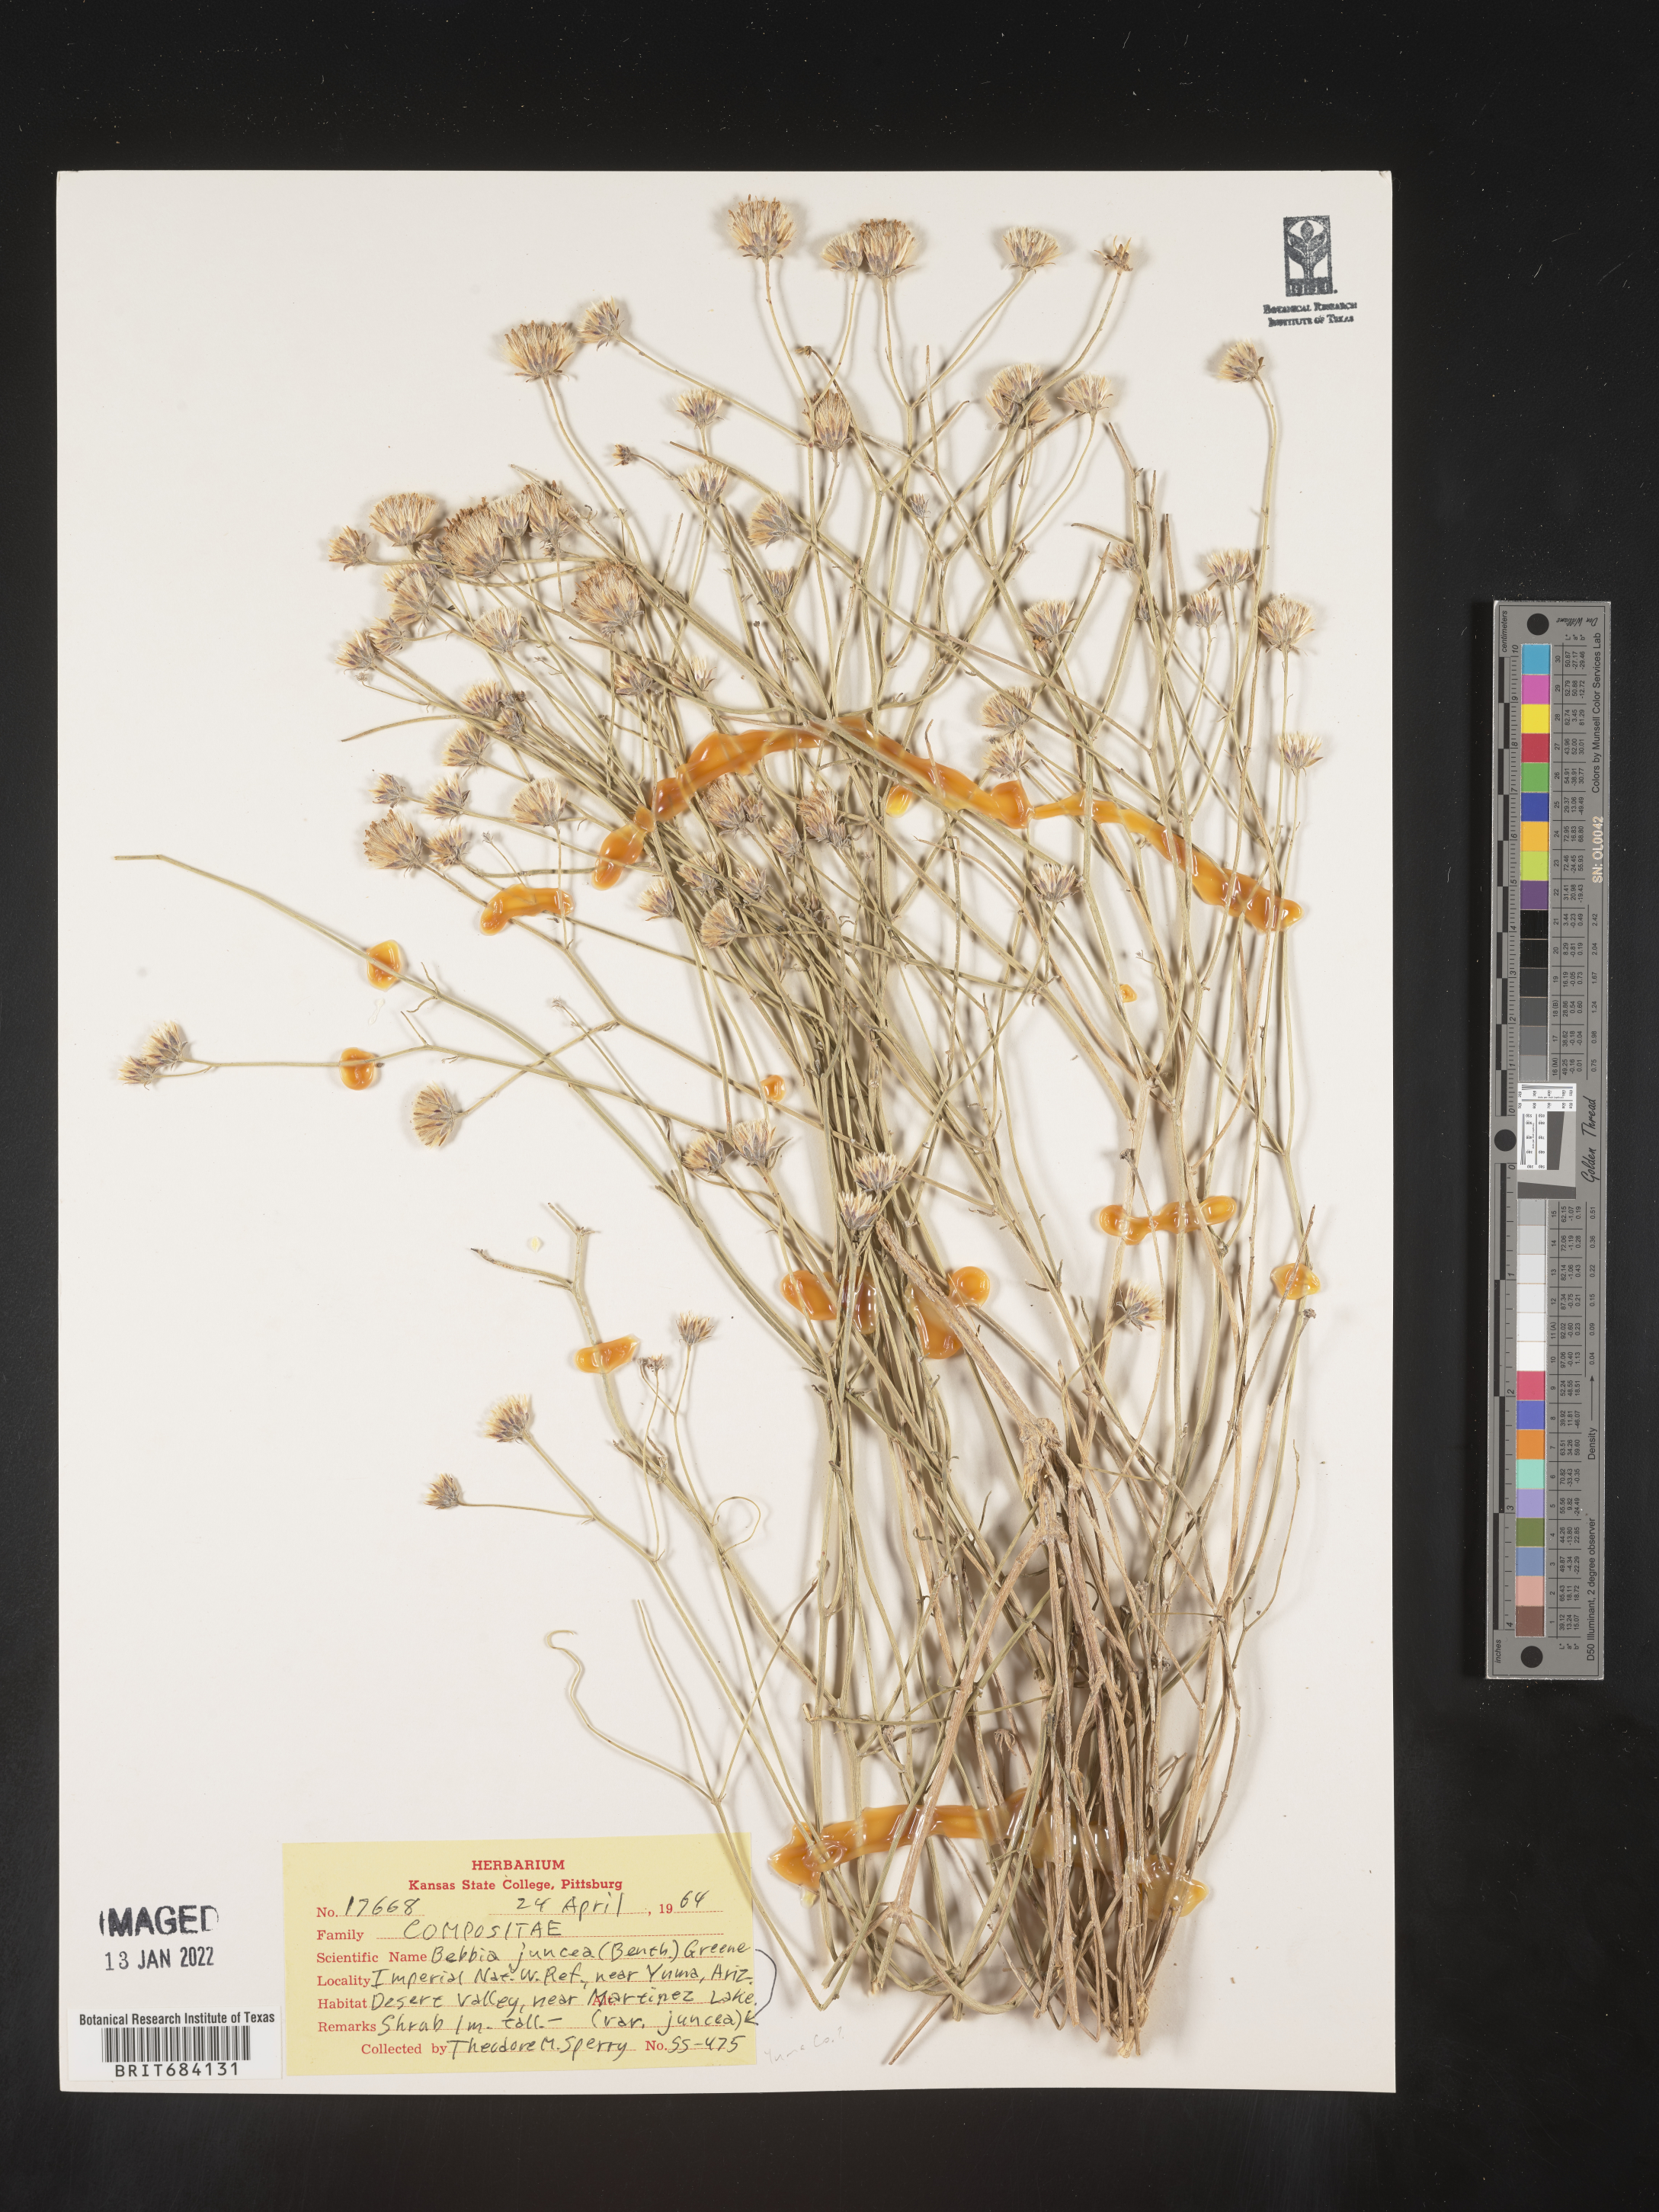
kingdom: Plantae
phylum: Tracheophyta
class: Magnoliopsida
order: Asterales
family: Asteraceae
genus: Bebbia
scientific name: Bebbia
